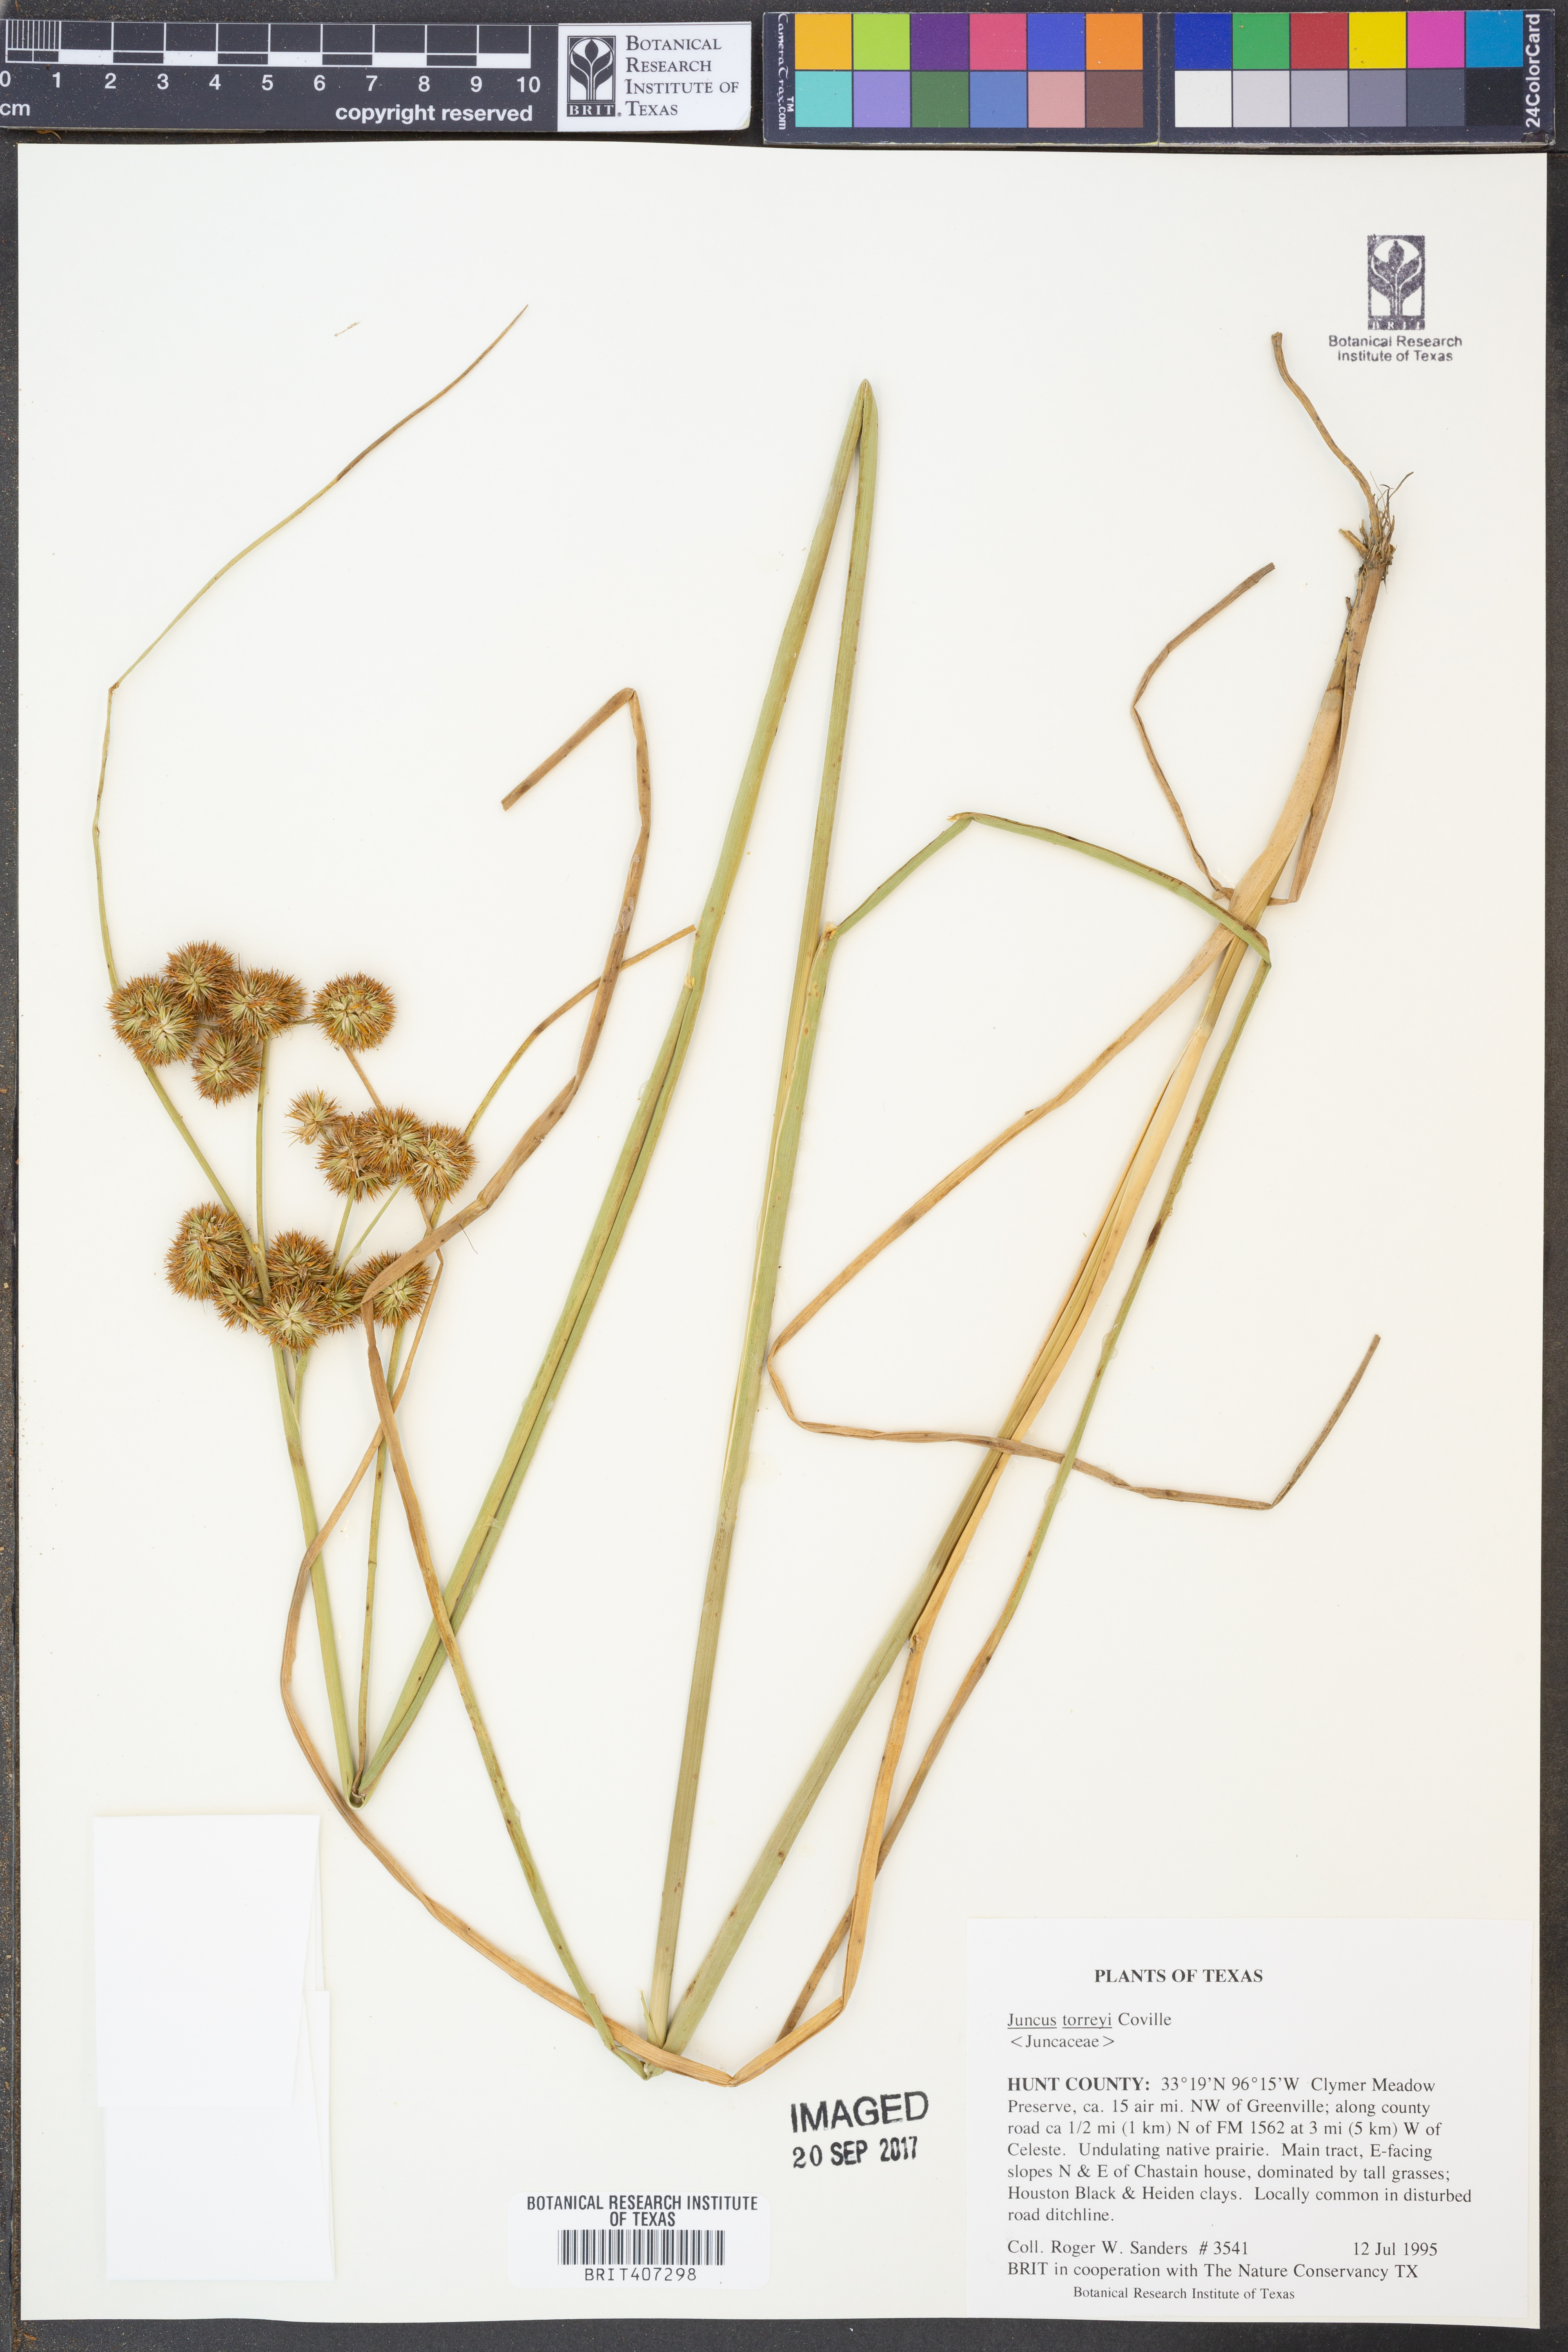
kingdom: Plantae
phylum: Tracheophyta
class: Liliopsida
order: Poales
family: Juncaceae
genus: Juncus
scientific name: Juncus torreyi
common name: Torrey's rush
